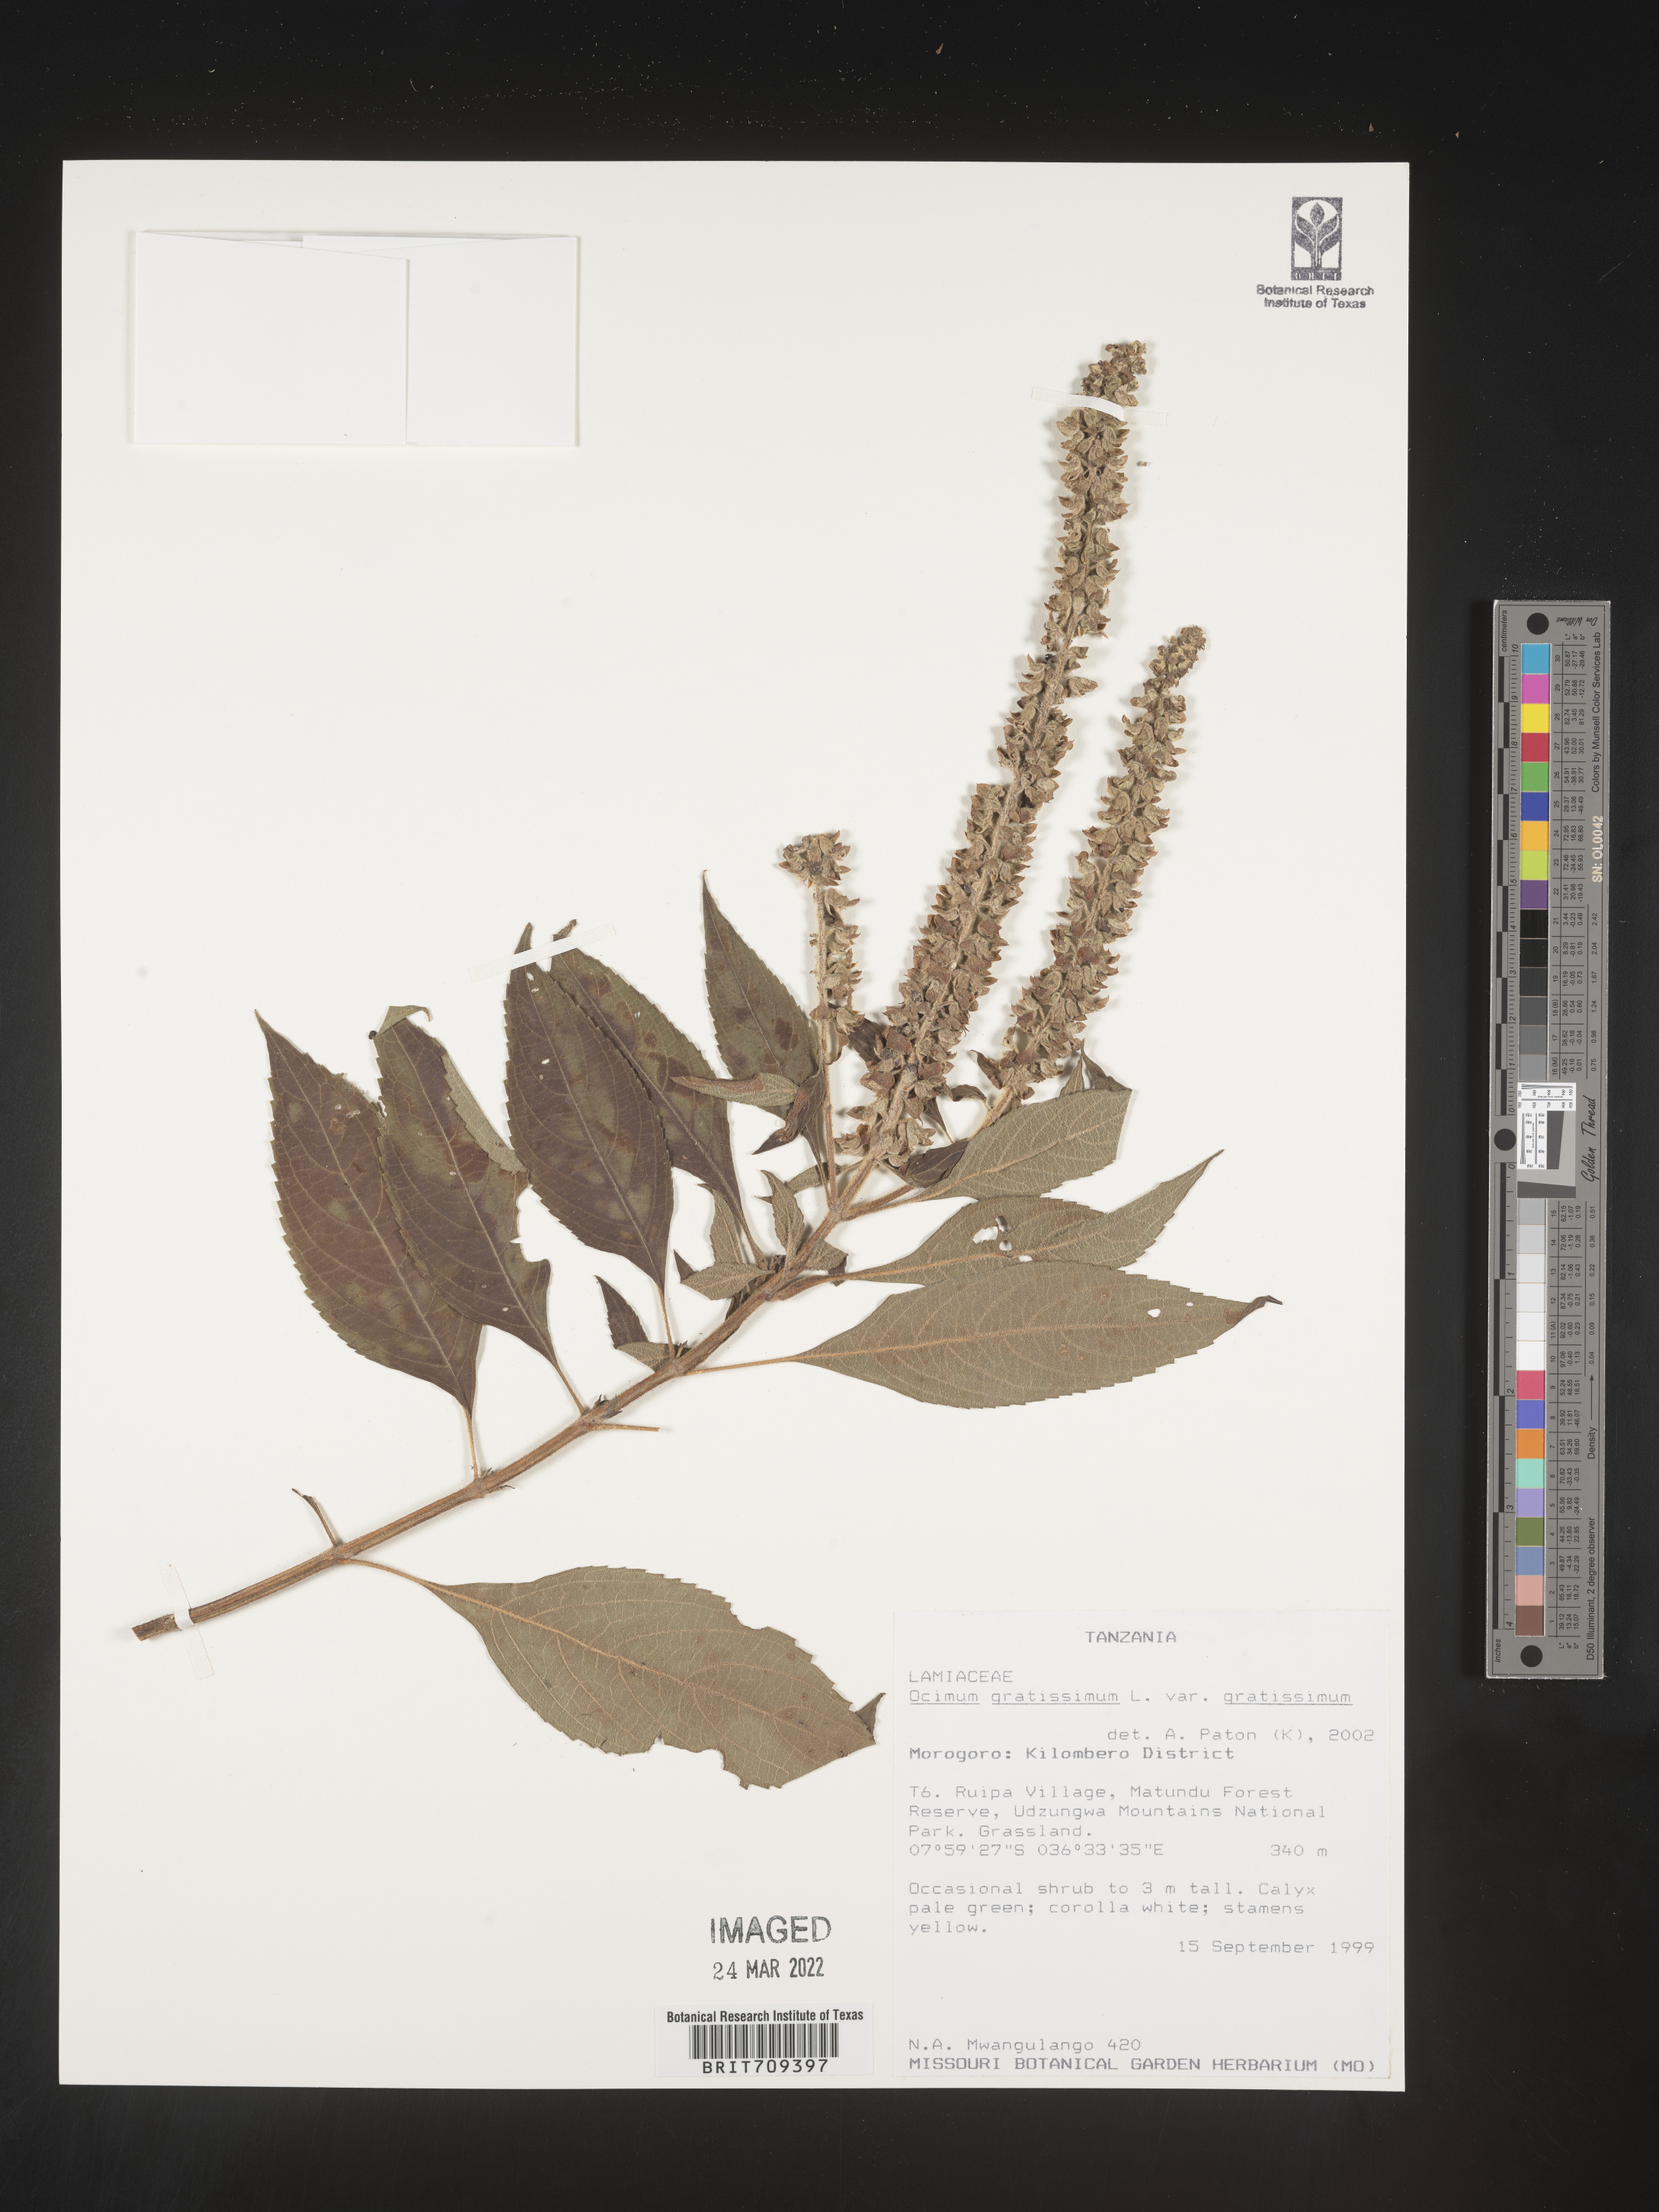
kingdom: Plantae
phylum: Tracheophyta
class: Magnoliopsida
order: Lamiales
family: Lamiaceae
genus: Ocimum
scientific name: Ocimum
